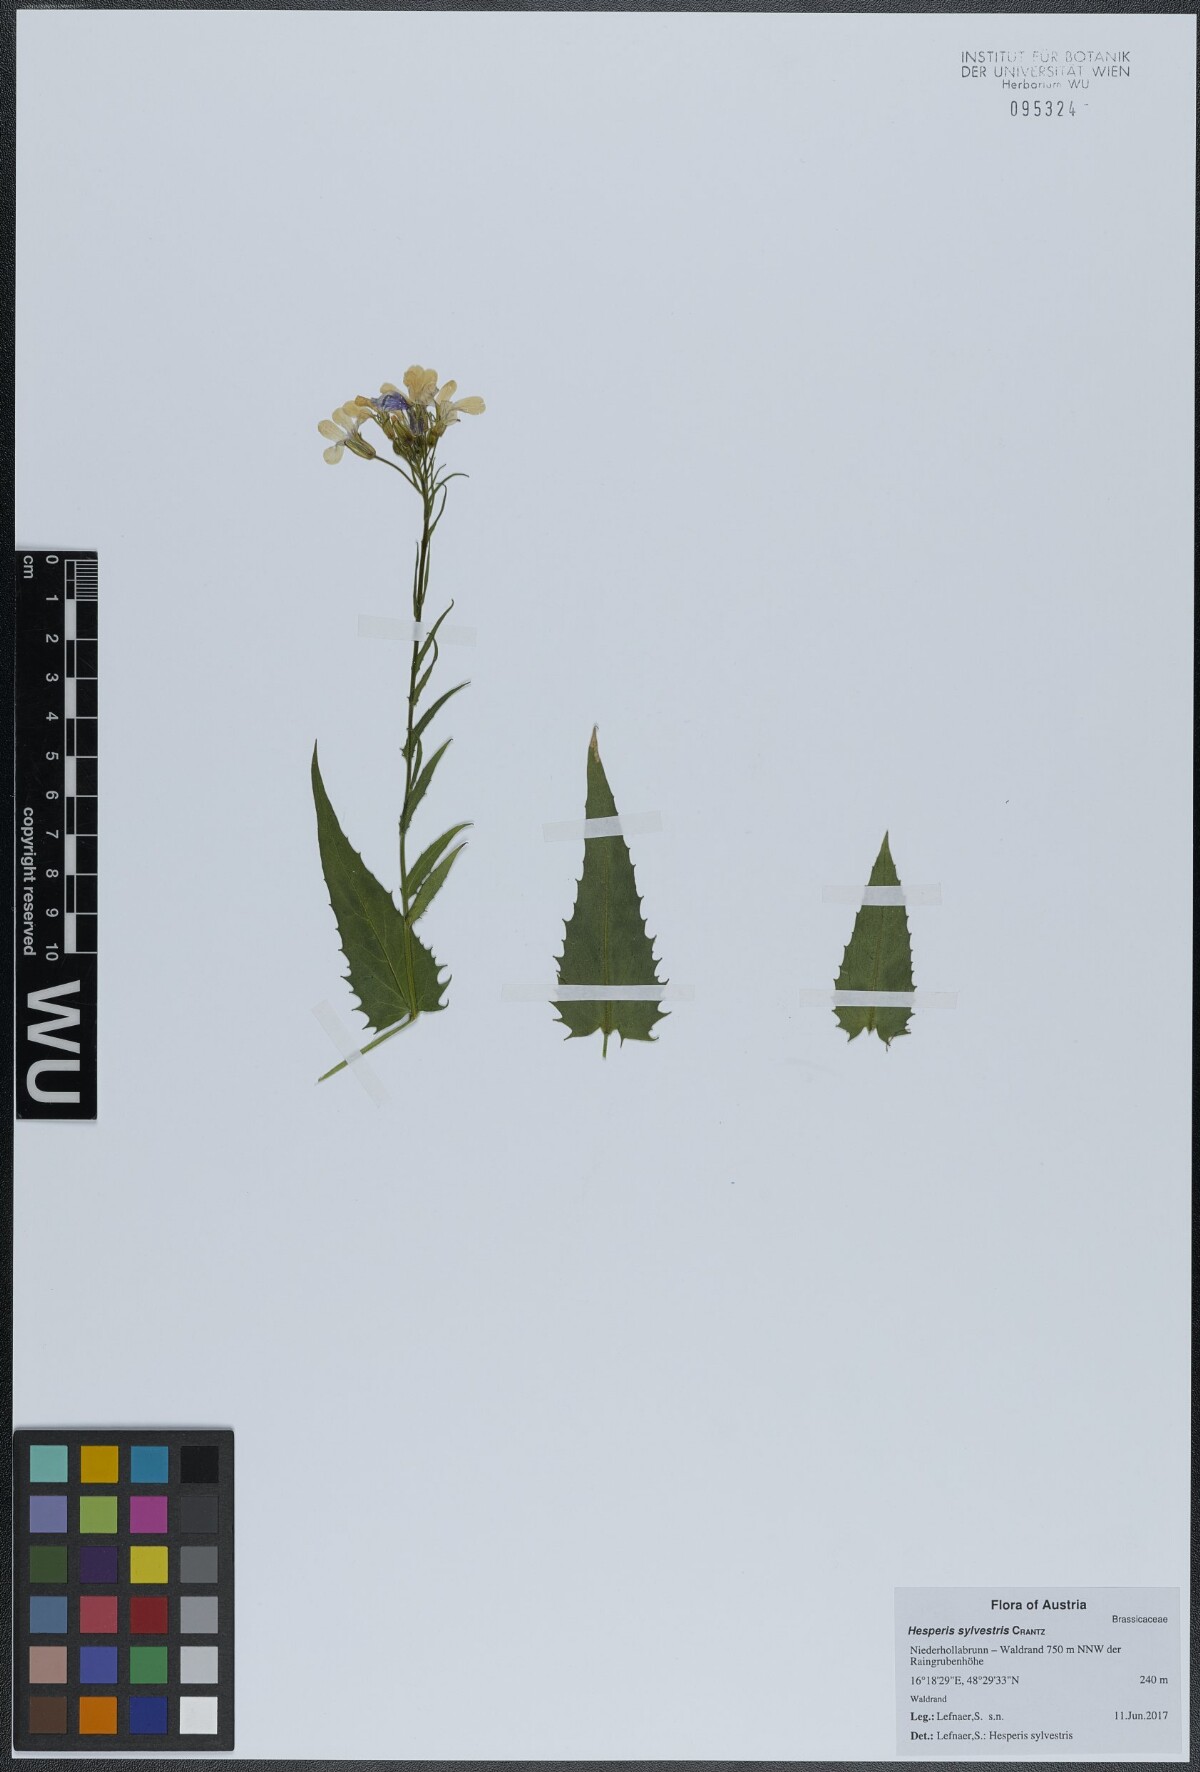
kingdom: Plantae
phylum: Tracheophyta
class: Magnoliopsida
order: Brassicales
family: Brassicaceae
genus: Hesperis
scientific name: Hesperis sylvestris
